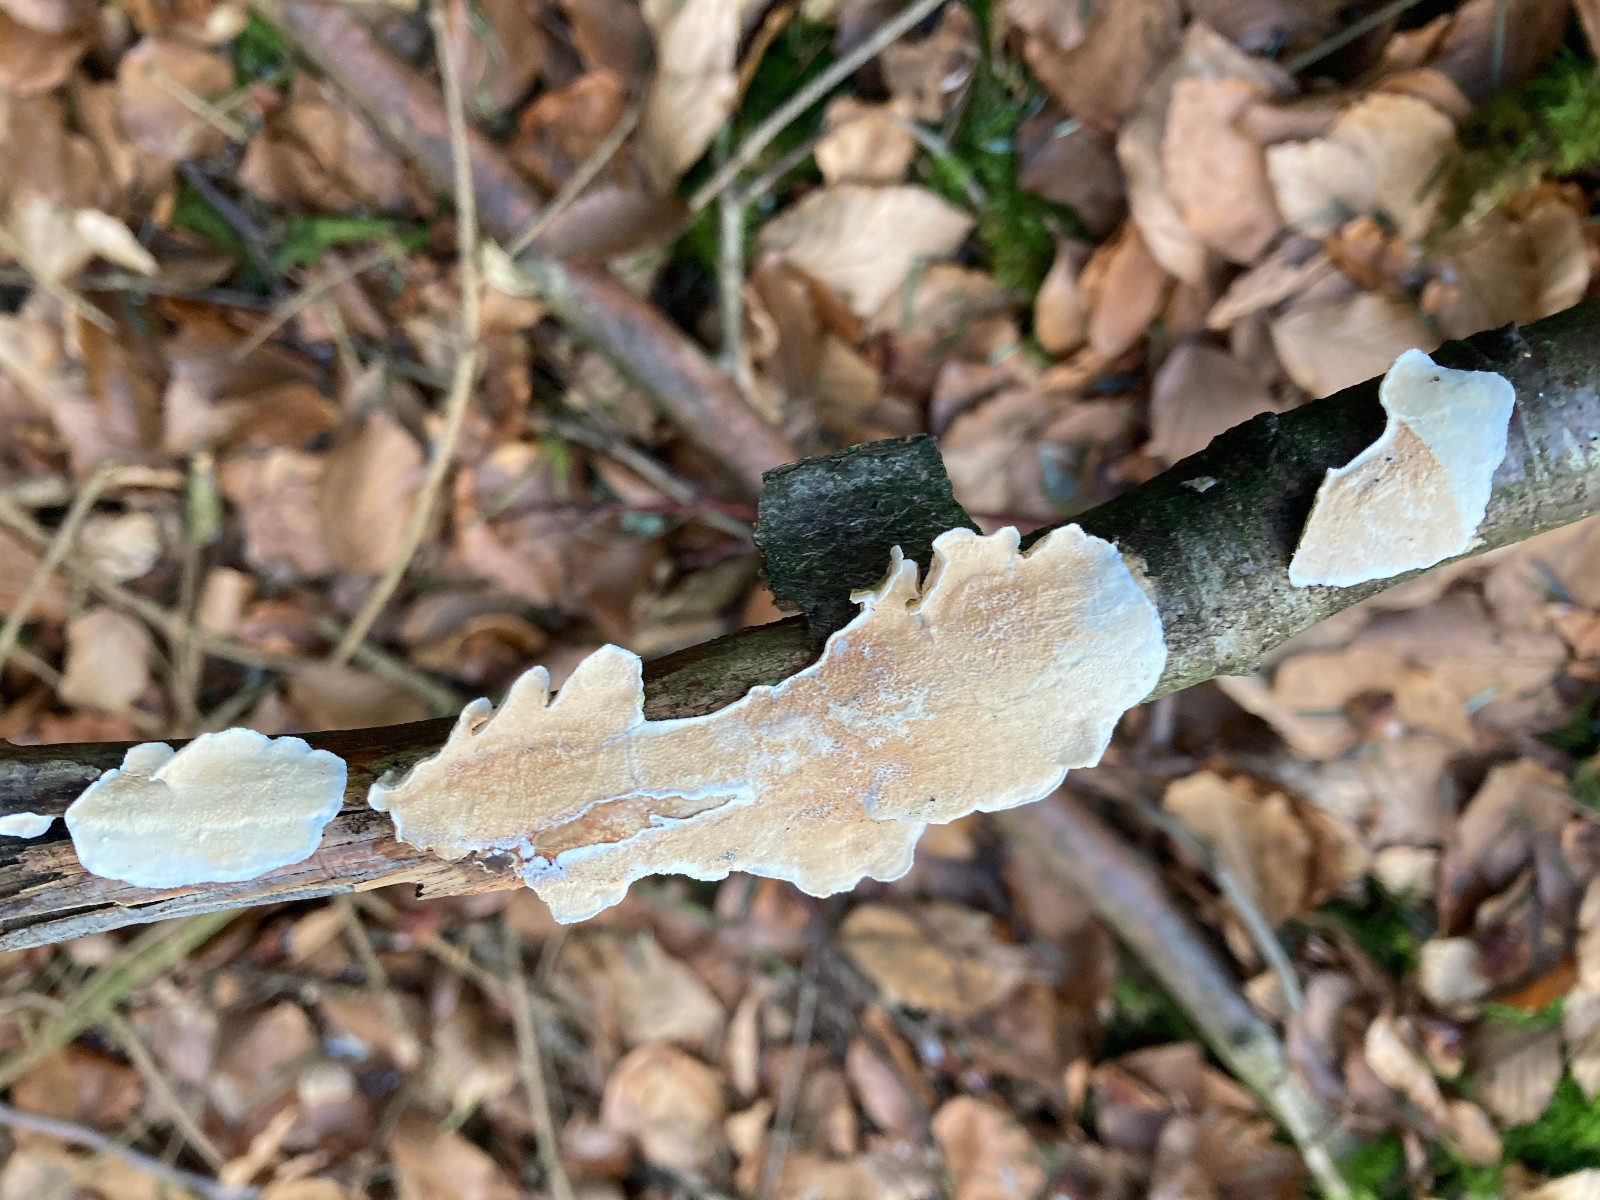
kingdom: Fungi
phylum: Basidiomycota
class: Agaricomycetes
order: Polyporales
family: Irpicaceae
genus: Byssomerulius
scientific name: Byssomerulius corium
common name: læder-åresvamp
